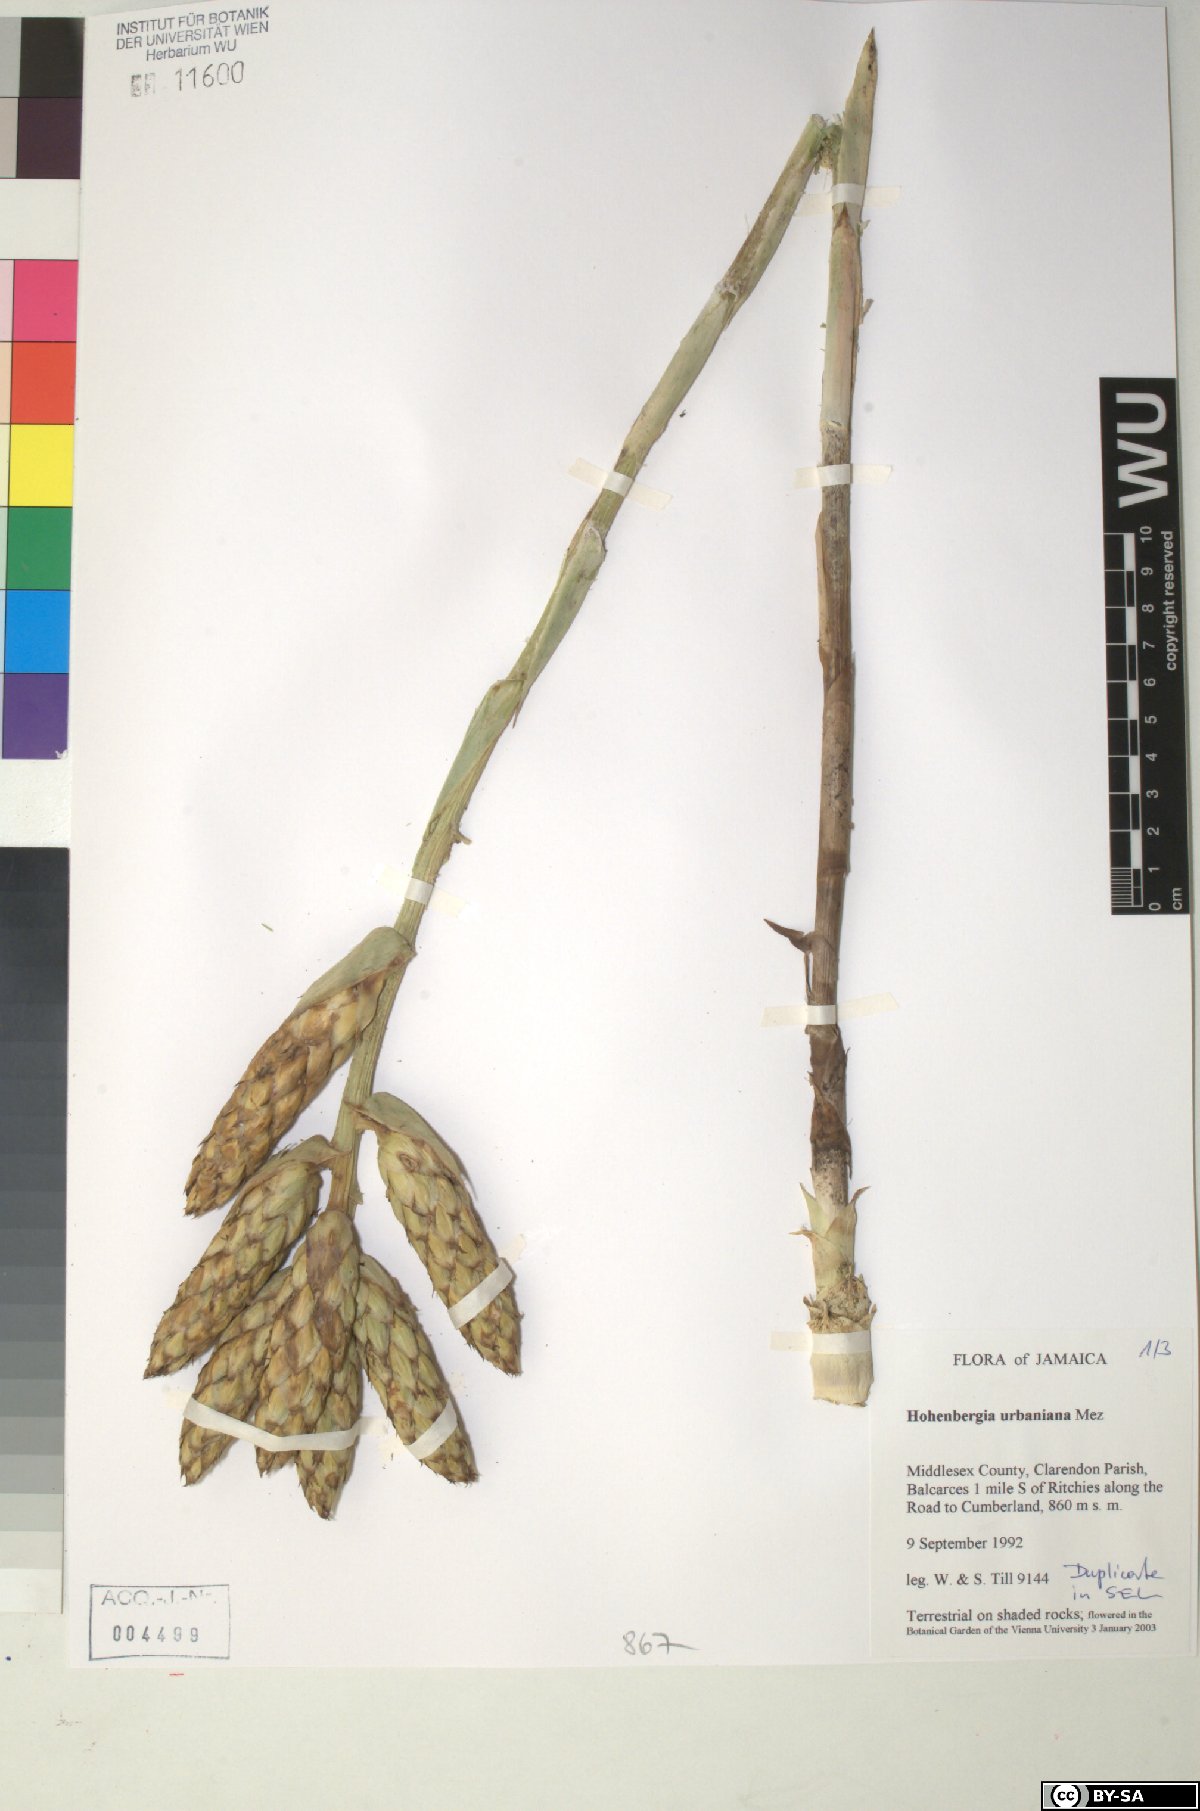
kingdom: Plantae
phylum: Tracheophyta
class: Liliopsida
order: Poales
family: Bromeliaceae
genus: Wittmackia
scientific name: Wittmackia urbaniana
